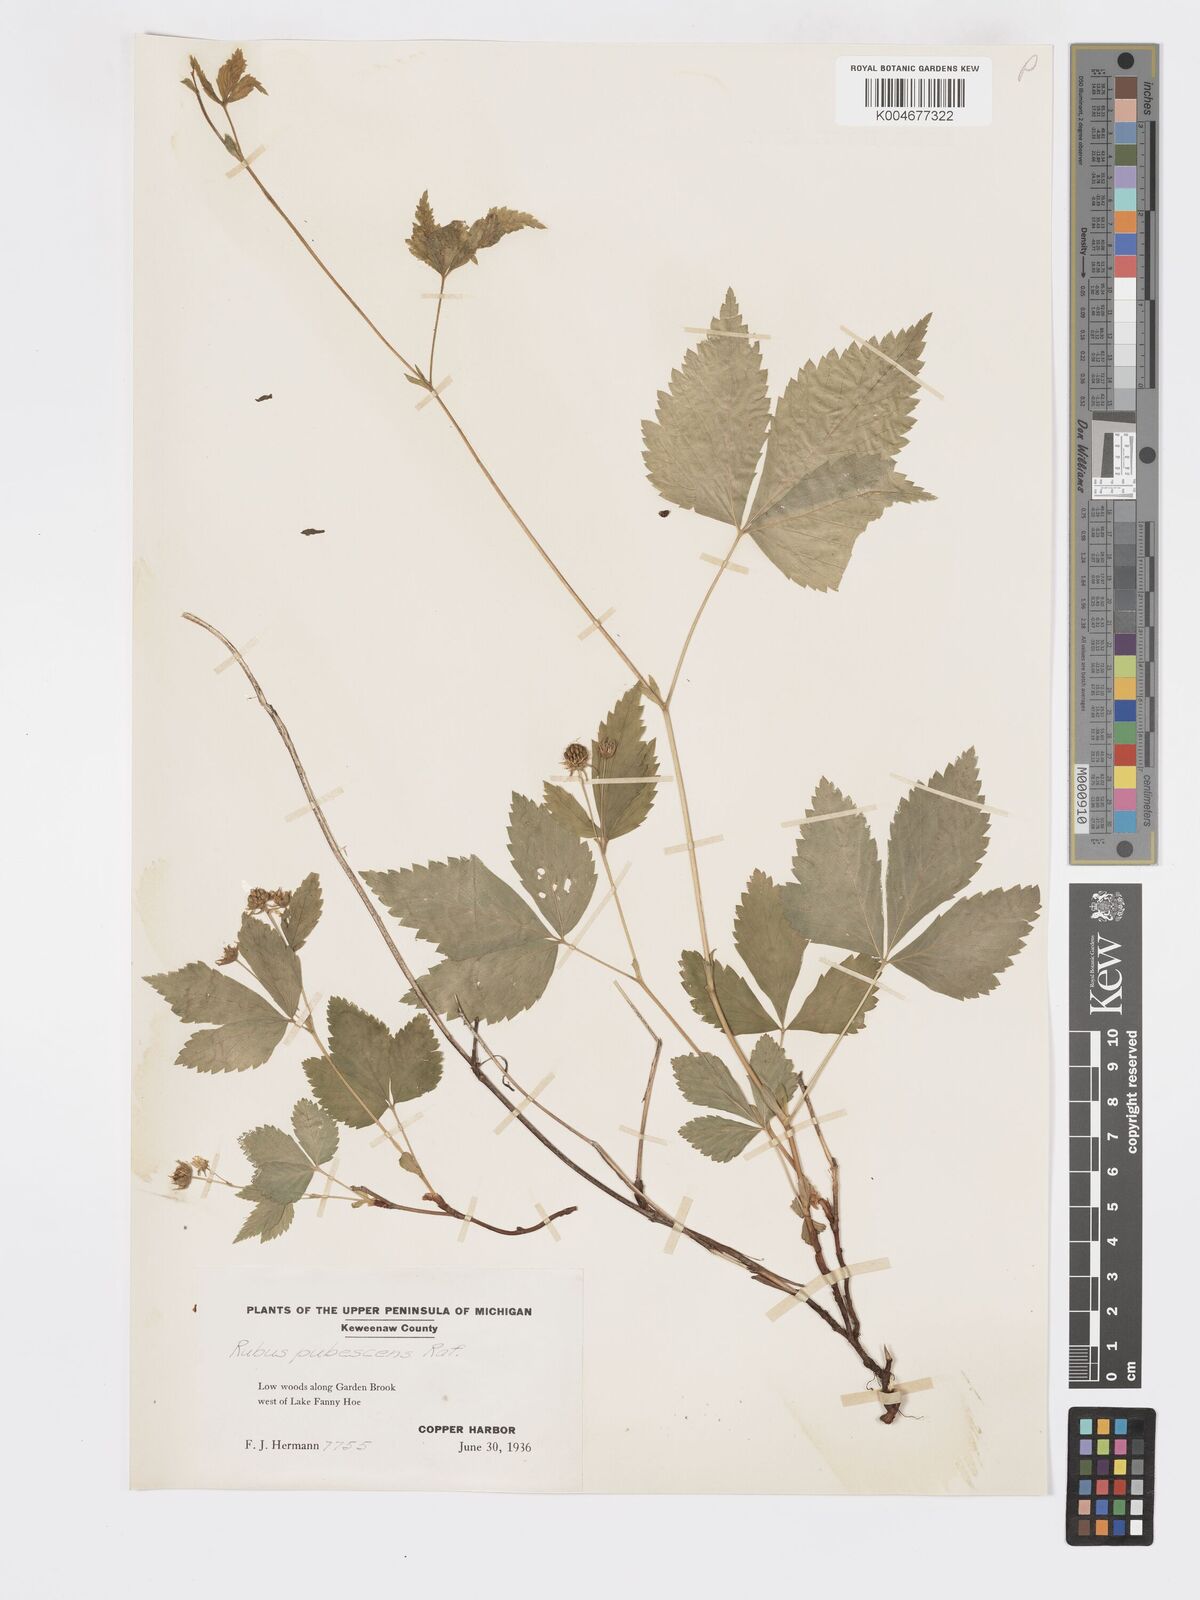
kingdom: Plantae
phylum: Tracheophyta
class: Magnoliopsida
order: Rosales
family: Rosaceae
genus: Rubus
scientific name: Rubus
